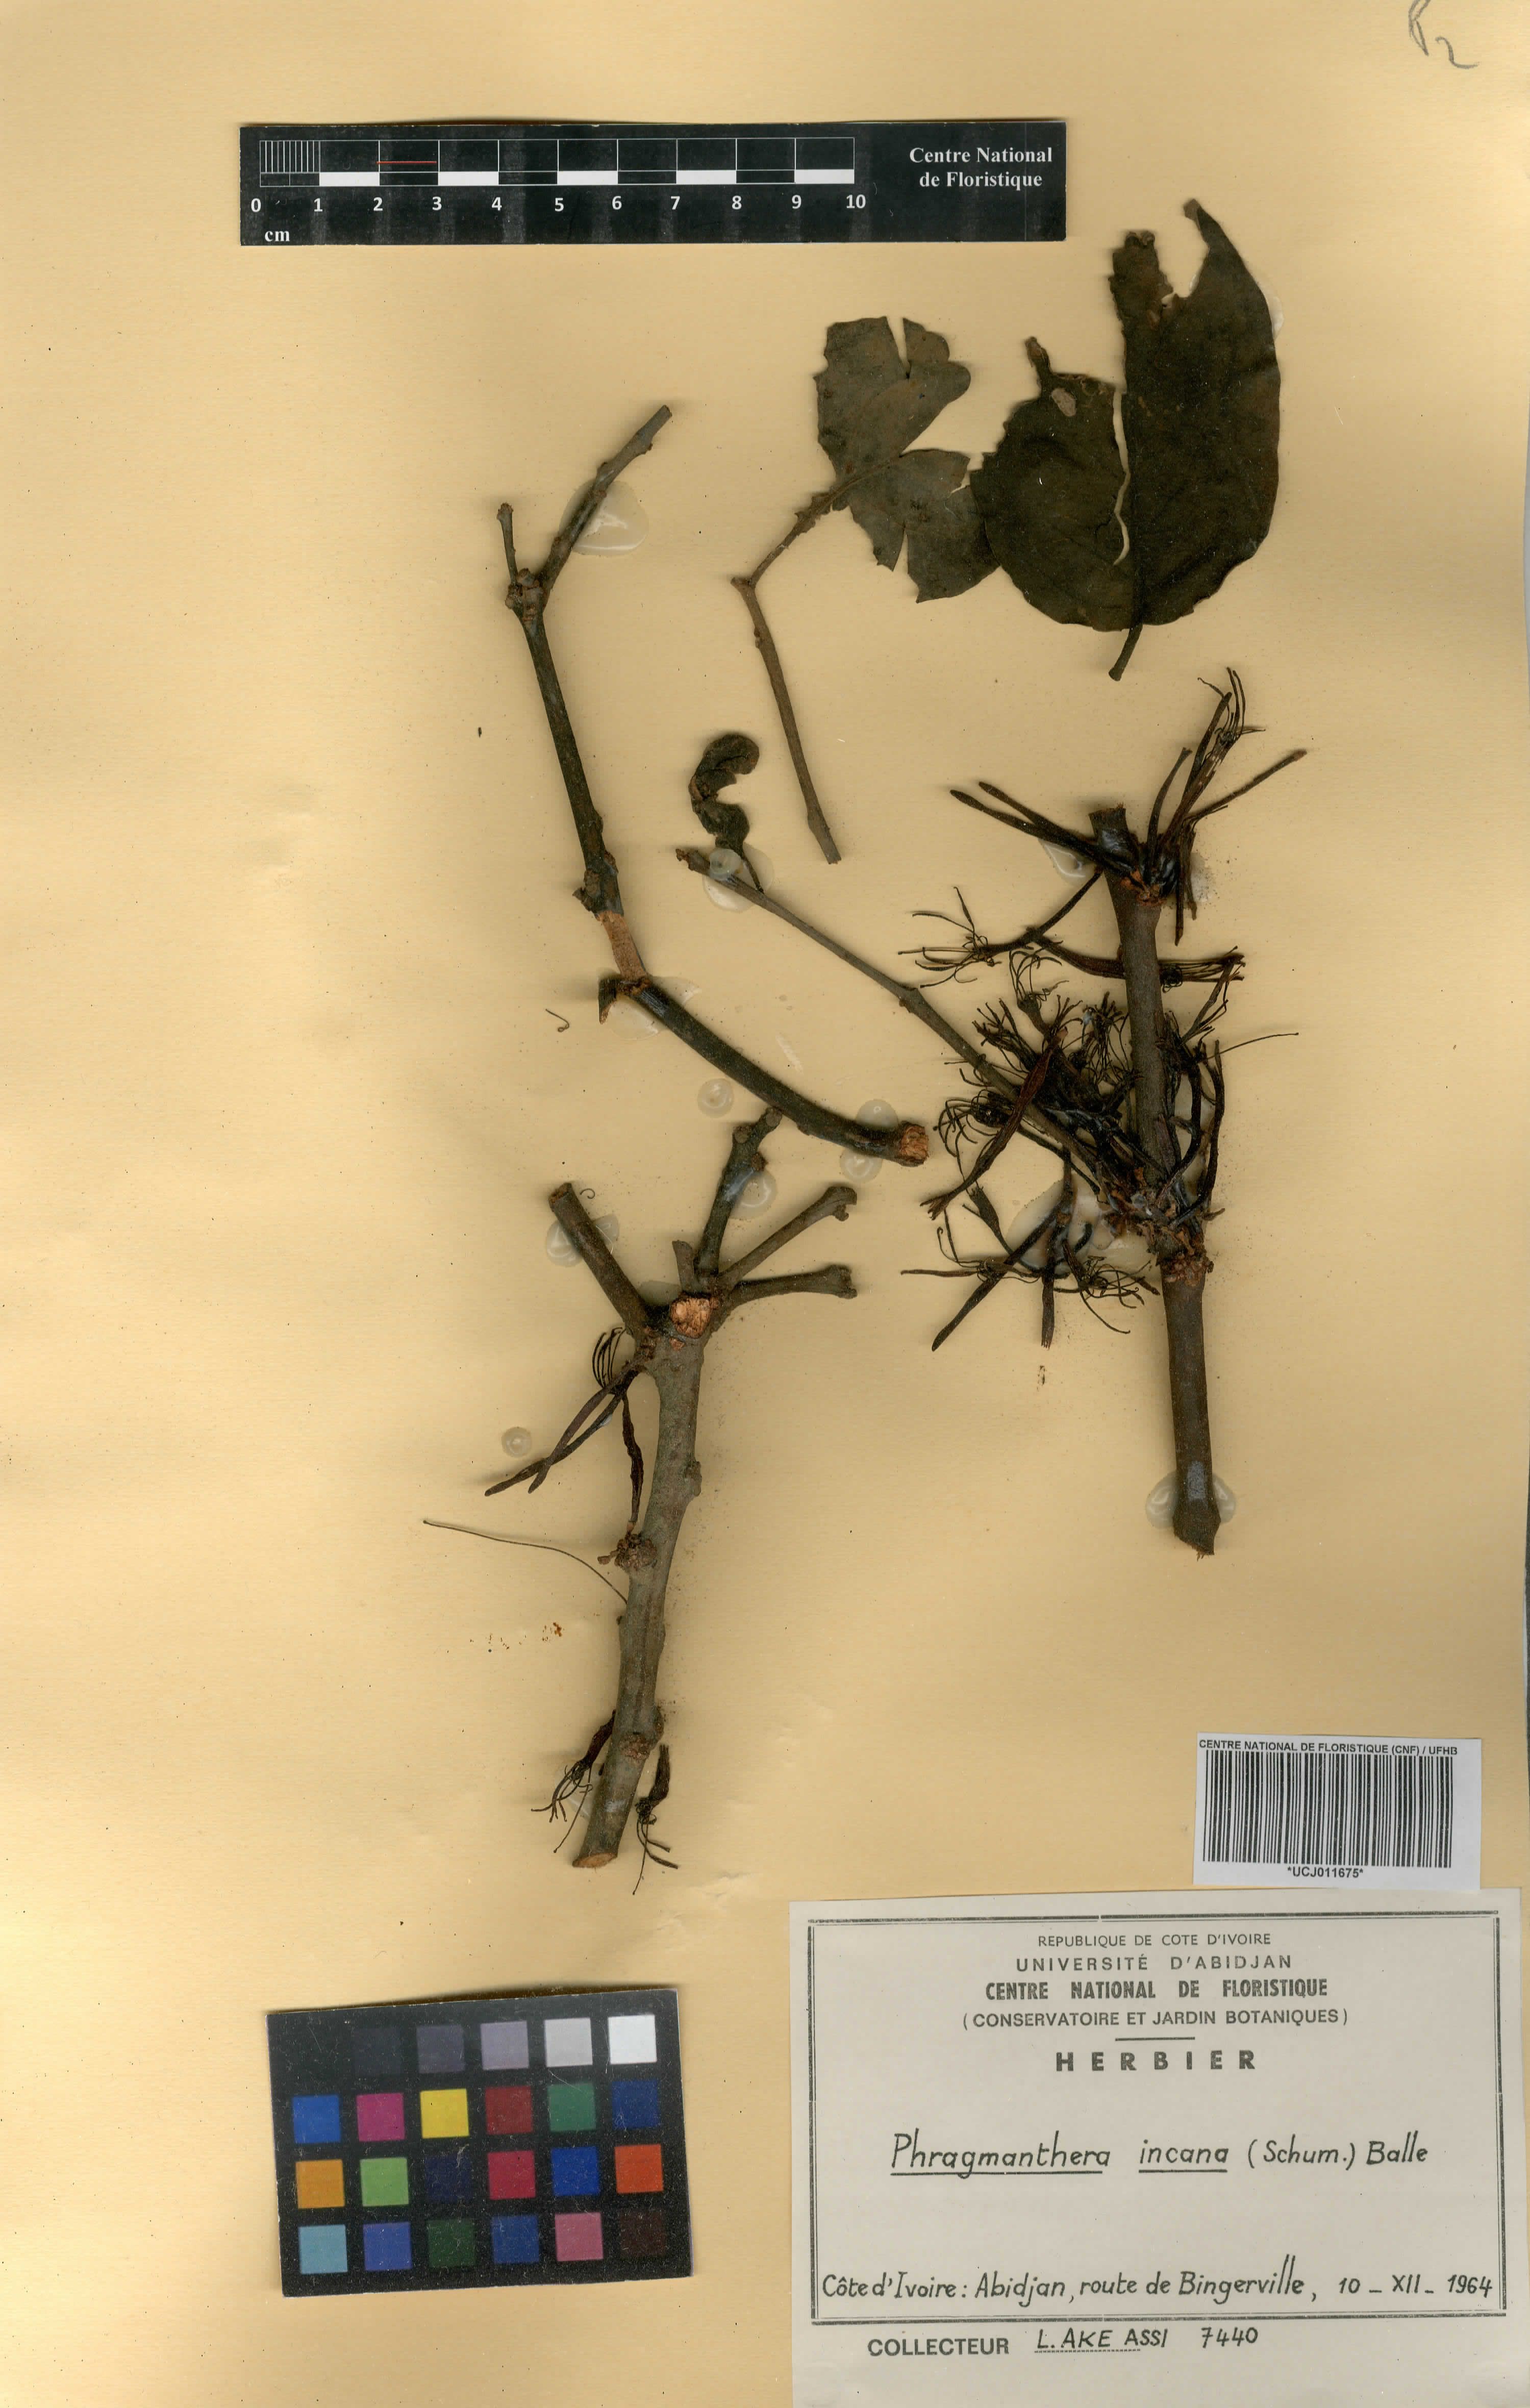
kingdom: Plantae
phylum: Tracheophyta
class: Magnoliopsida
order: Santalales
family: Loranthaceae
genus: Phragmanthera
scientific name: Phragmanthera capitata
